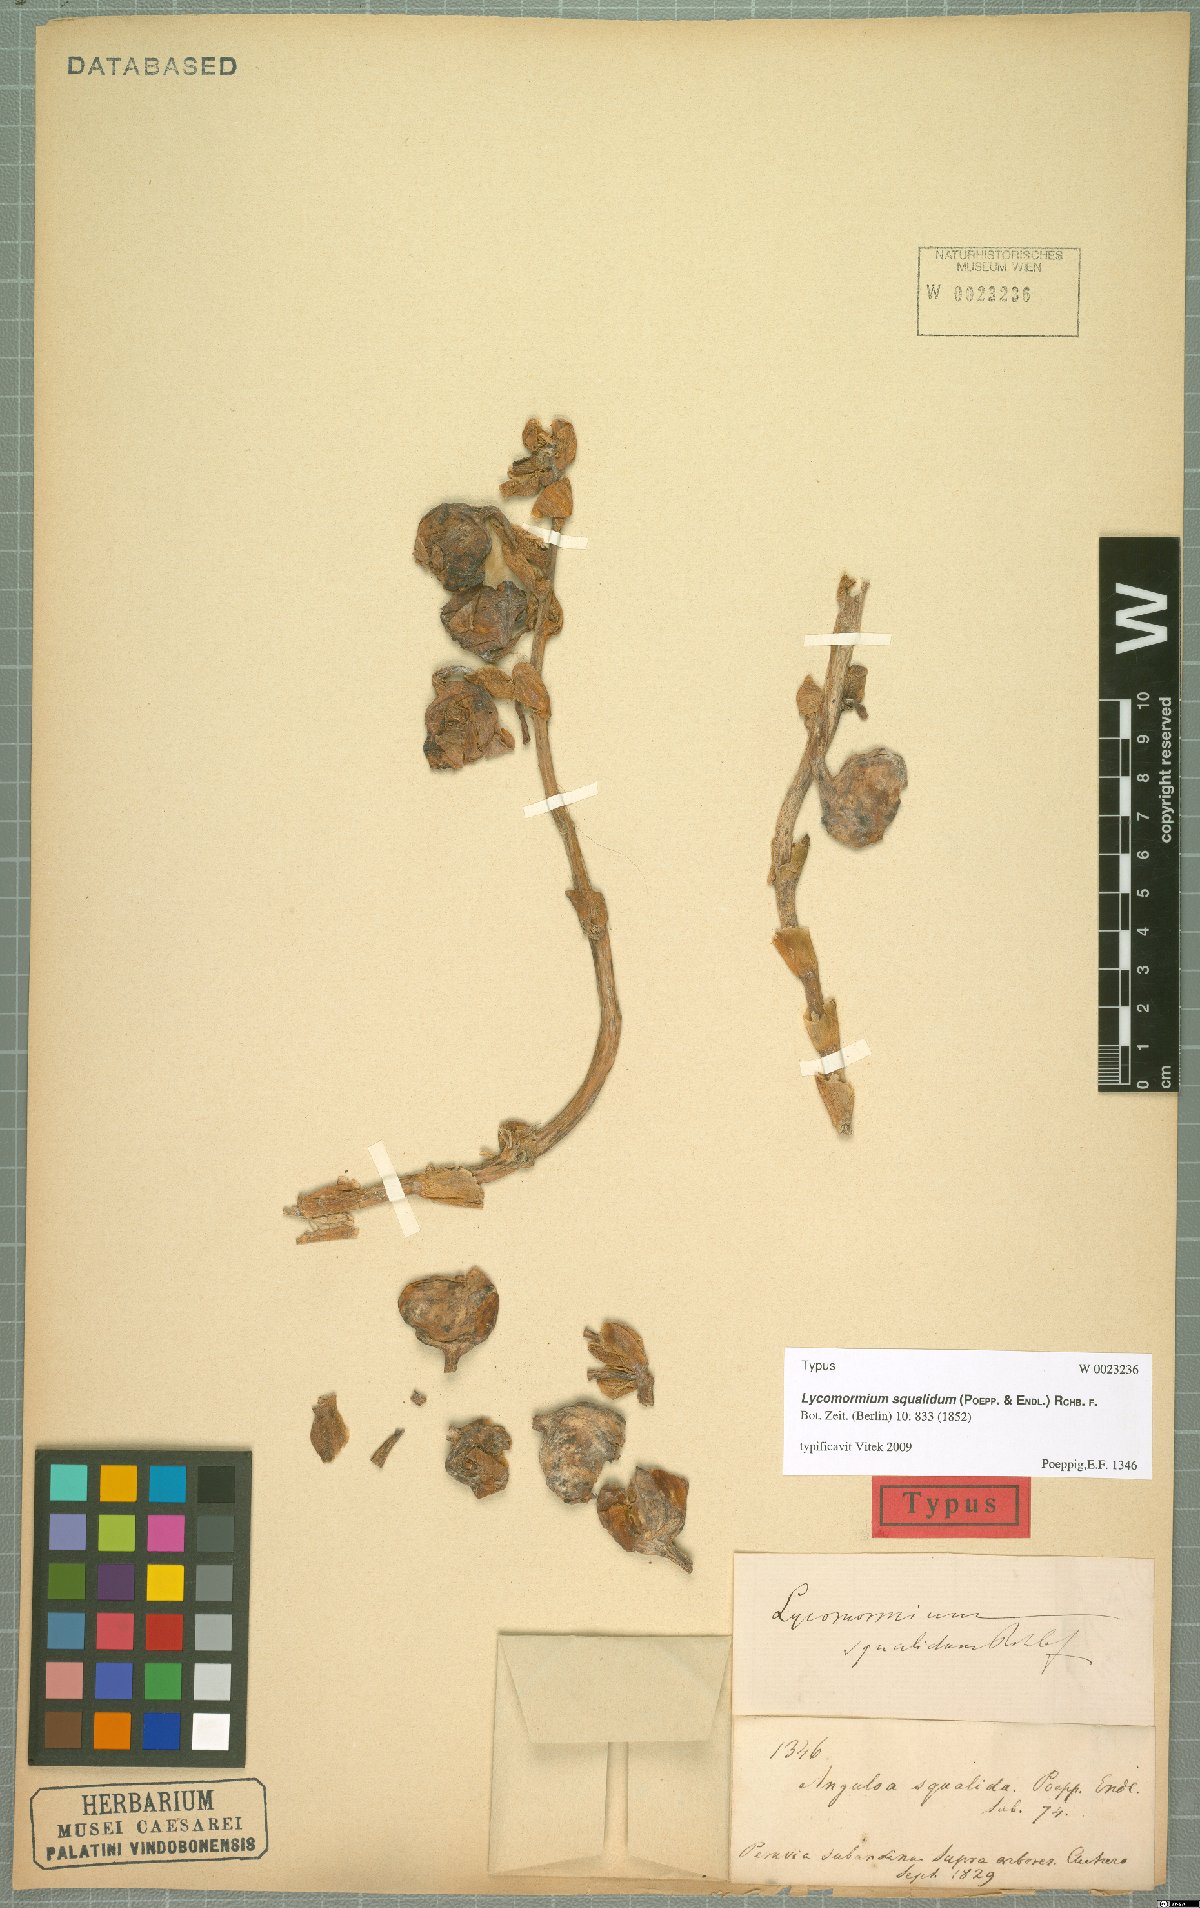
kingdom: Plantae
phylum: Tracheophyta
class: Liliopsida
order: Asparagales
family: Orchidaceae
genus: Lycomormium
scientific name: Lycomormium squalidum
